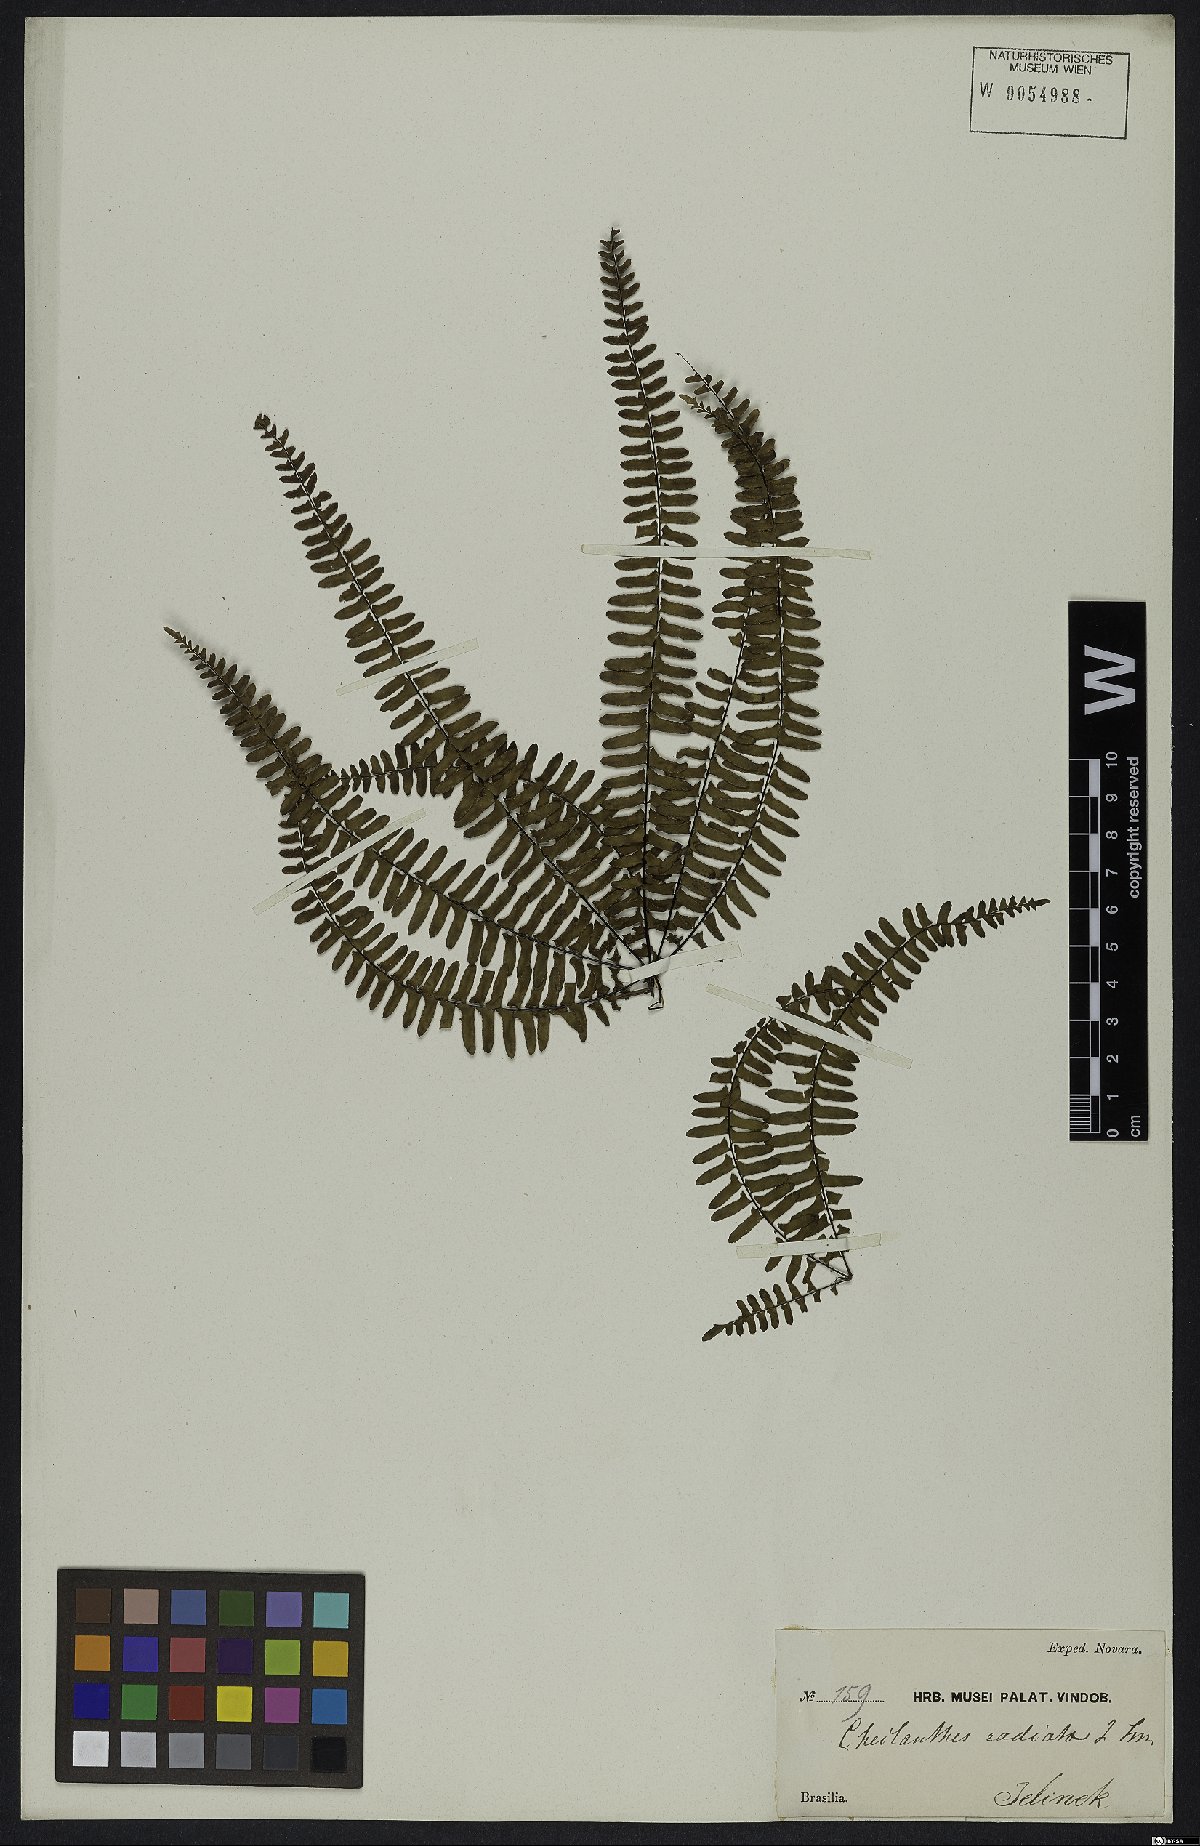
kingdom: Plantae
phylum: Tracheophyta
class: Polypodiopsida
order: Polypodiales
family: Pteridaceae
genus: Adiantopsis
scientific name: Adiantopsis radiata
